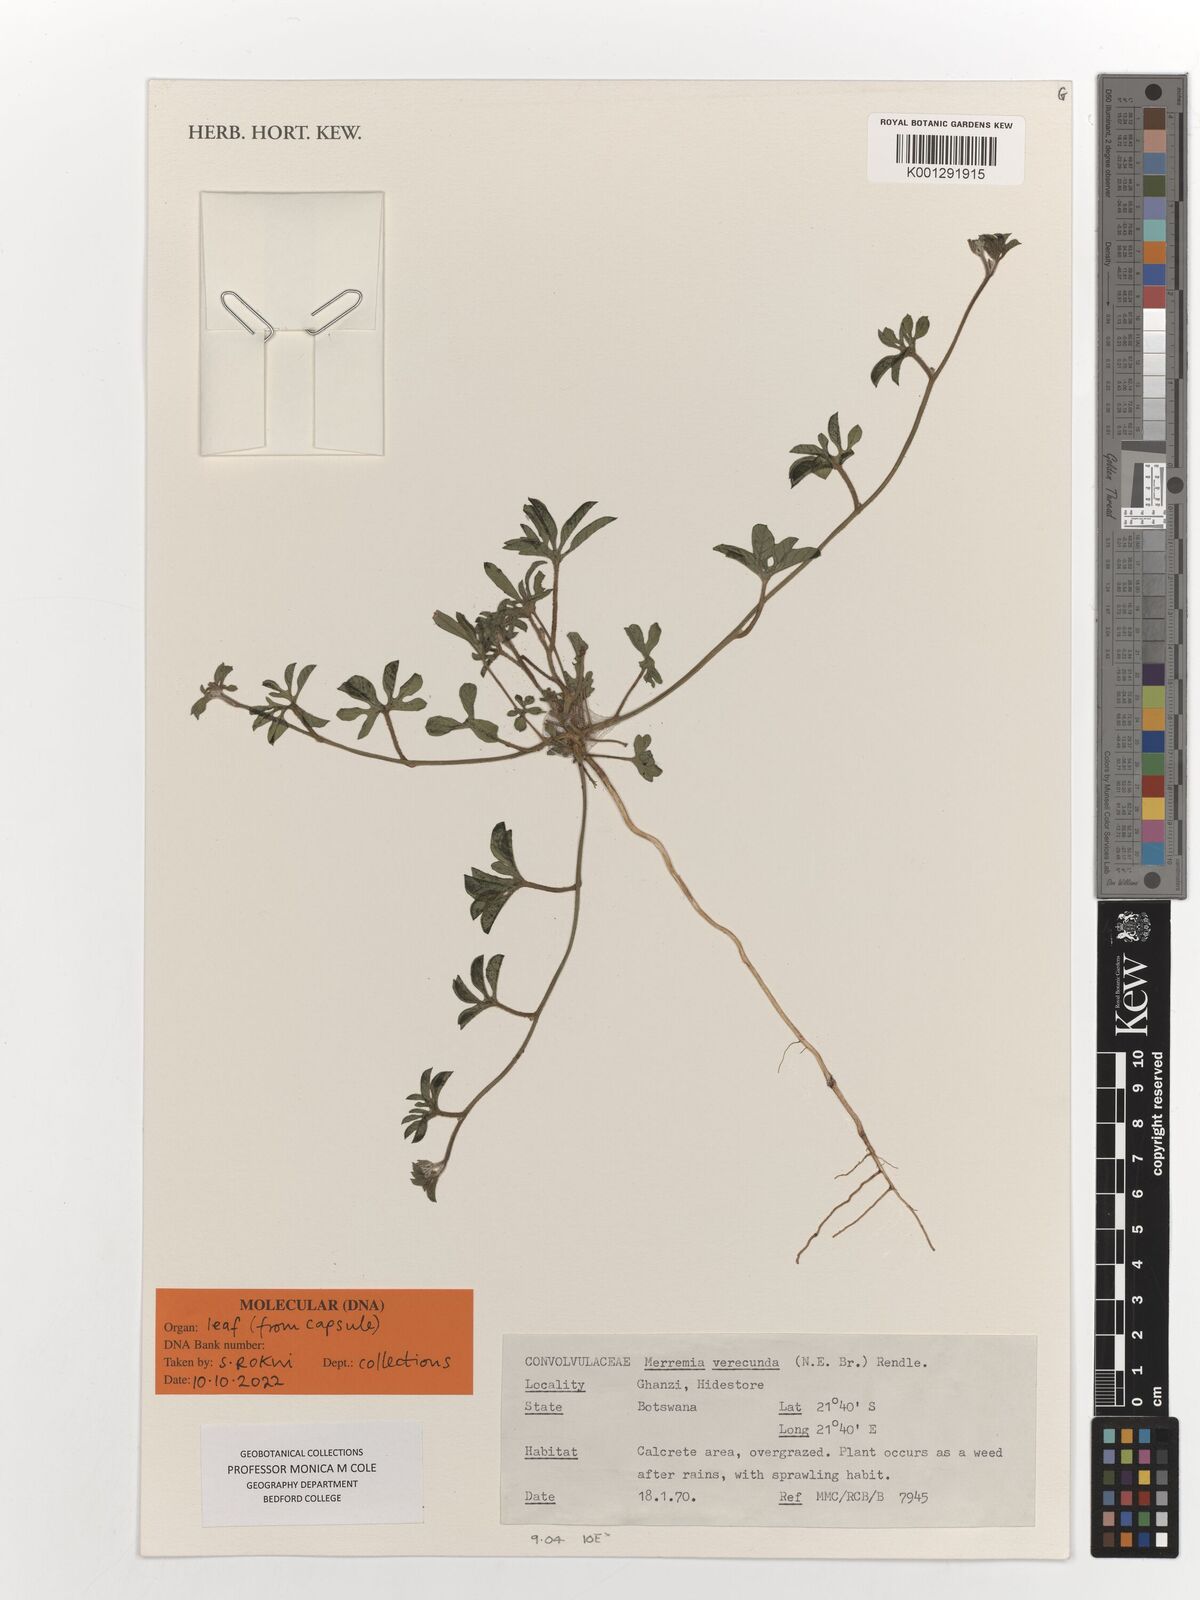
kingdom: Plantae
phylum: Tracheophyta
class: Magnoliopsida
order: Solanales
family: Convolvulaceae
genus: Merremia
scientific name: Merremia verecunda
